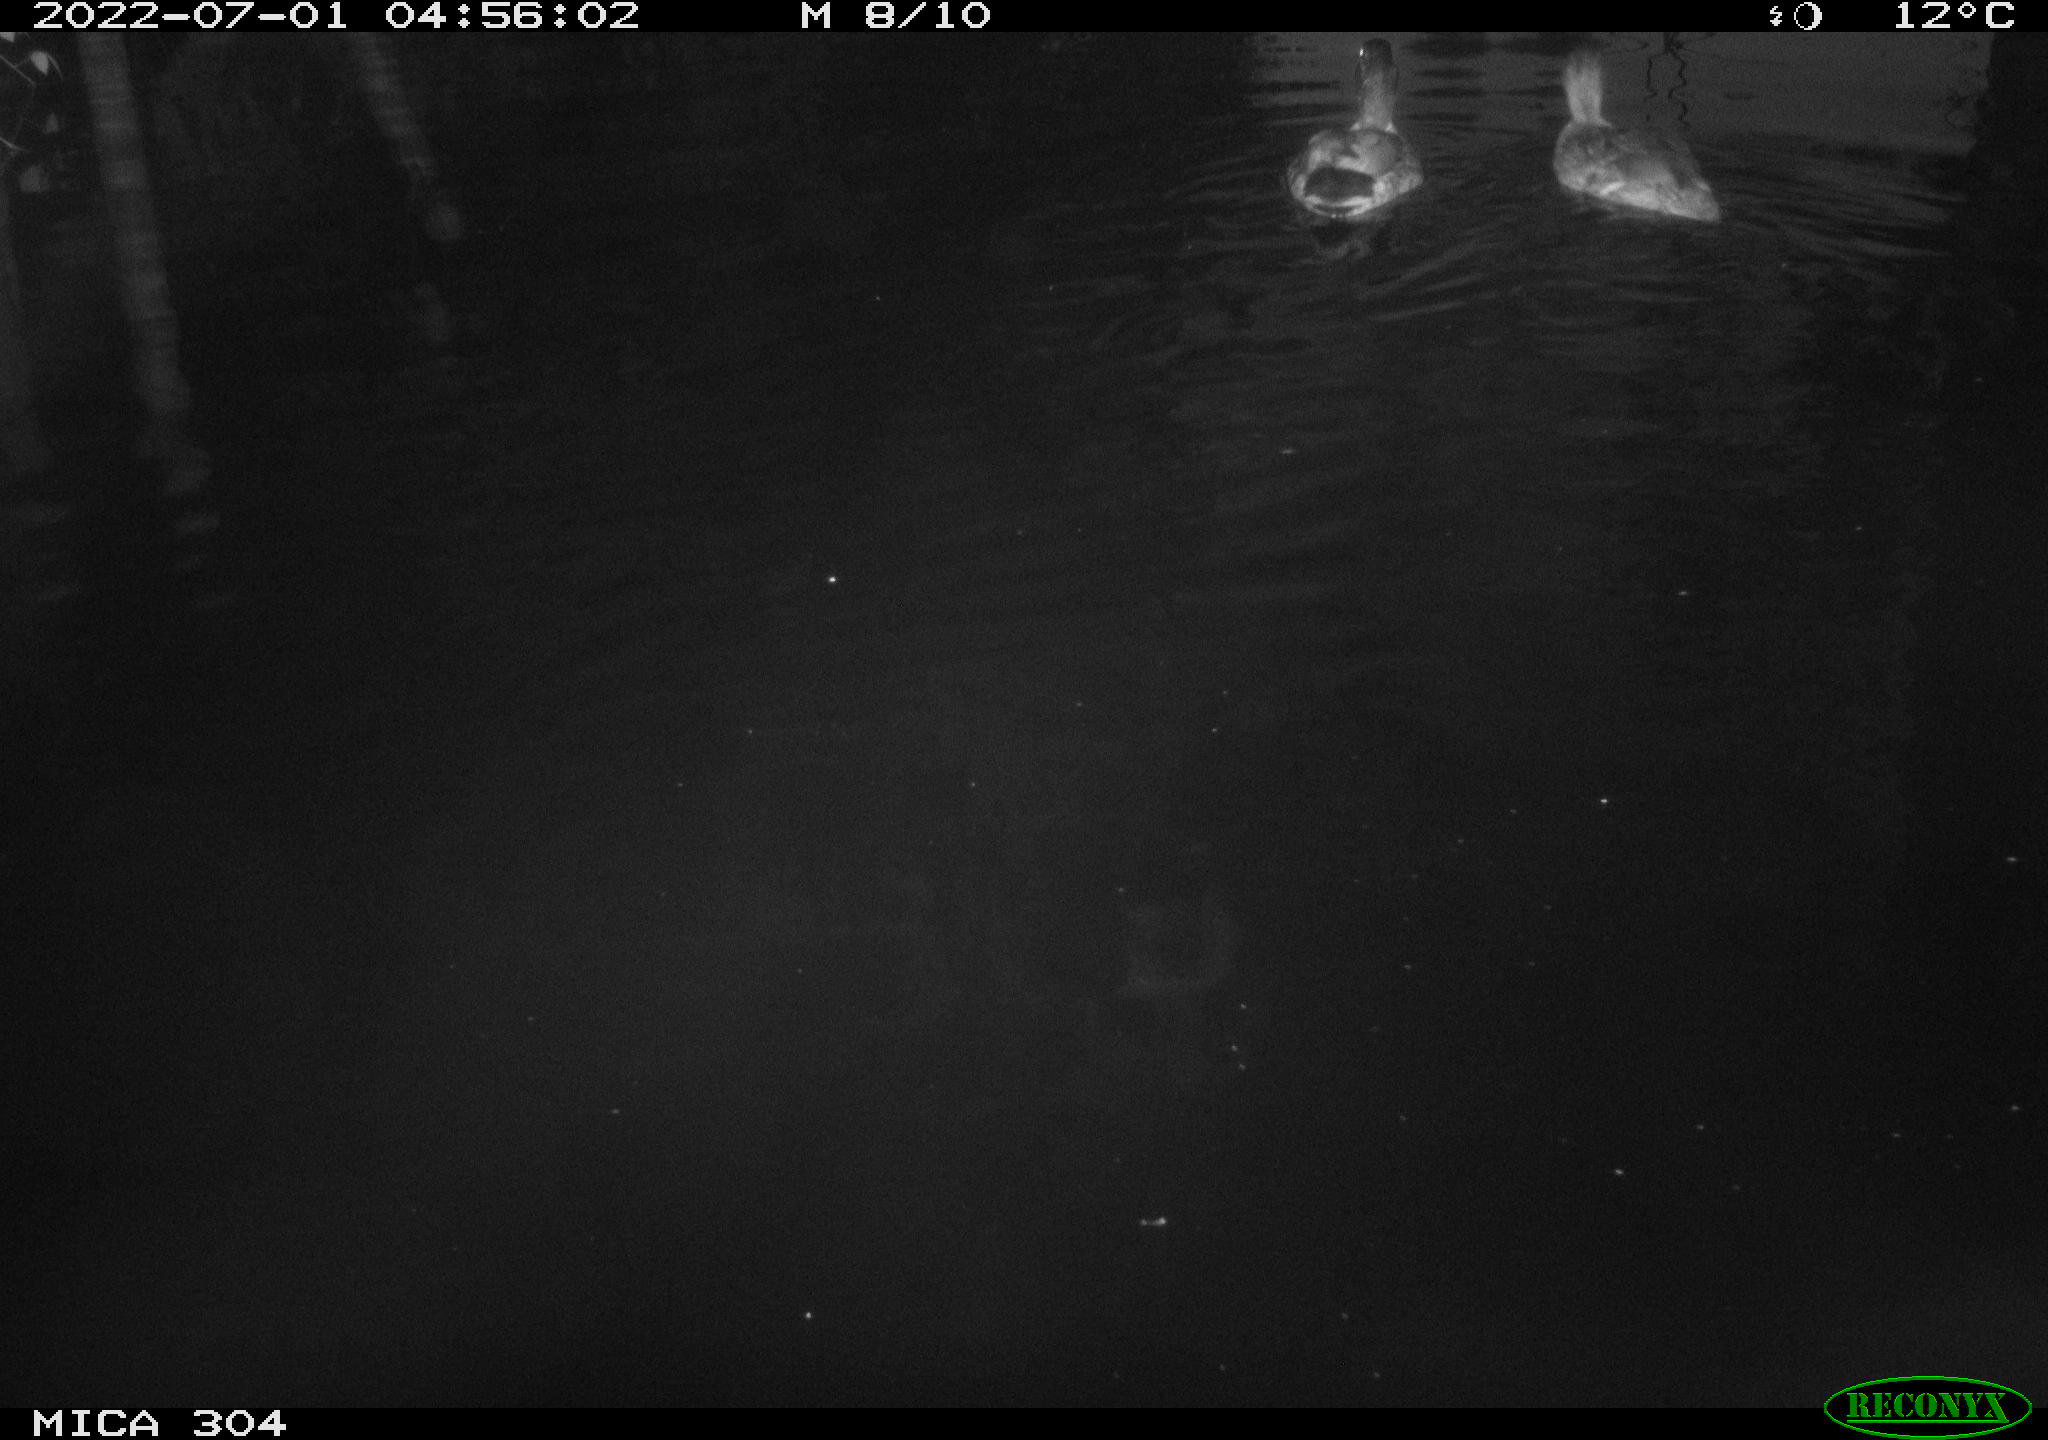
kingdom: Animalia
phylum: Chordata
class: Aves
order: Anseriformes
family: Anatidae
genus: Anas
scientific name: Anas platyrhynchos
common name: Mallard
